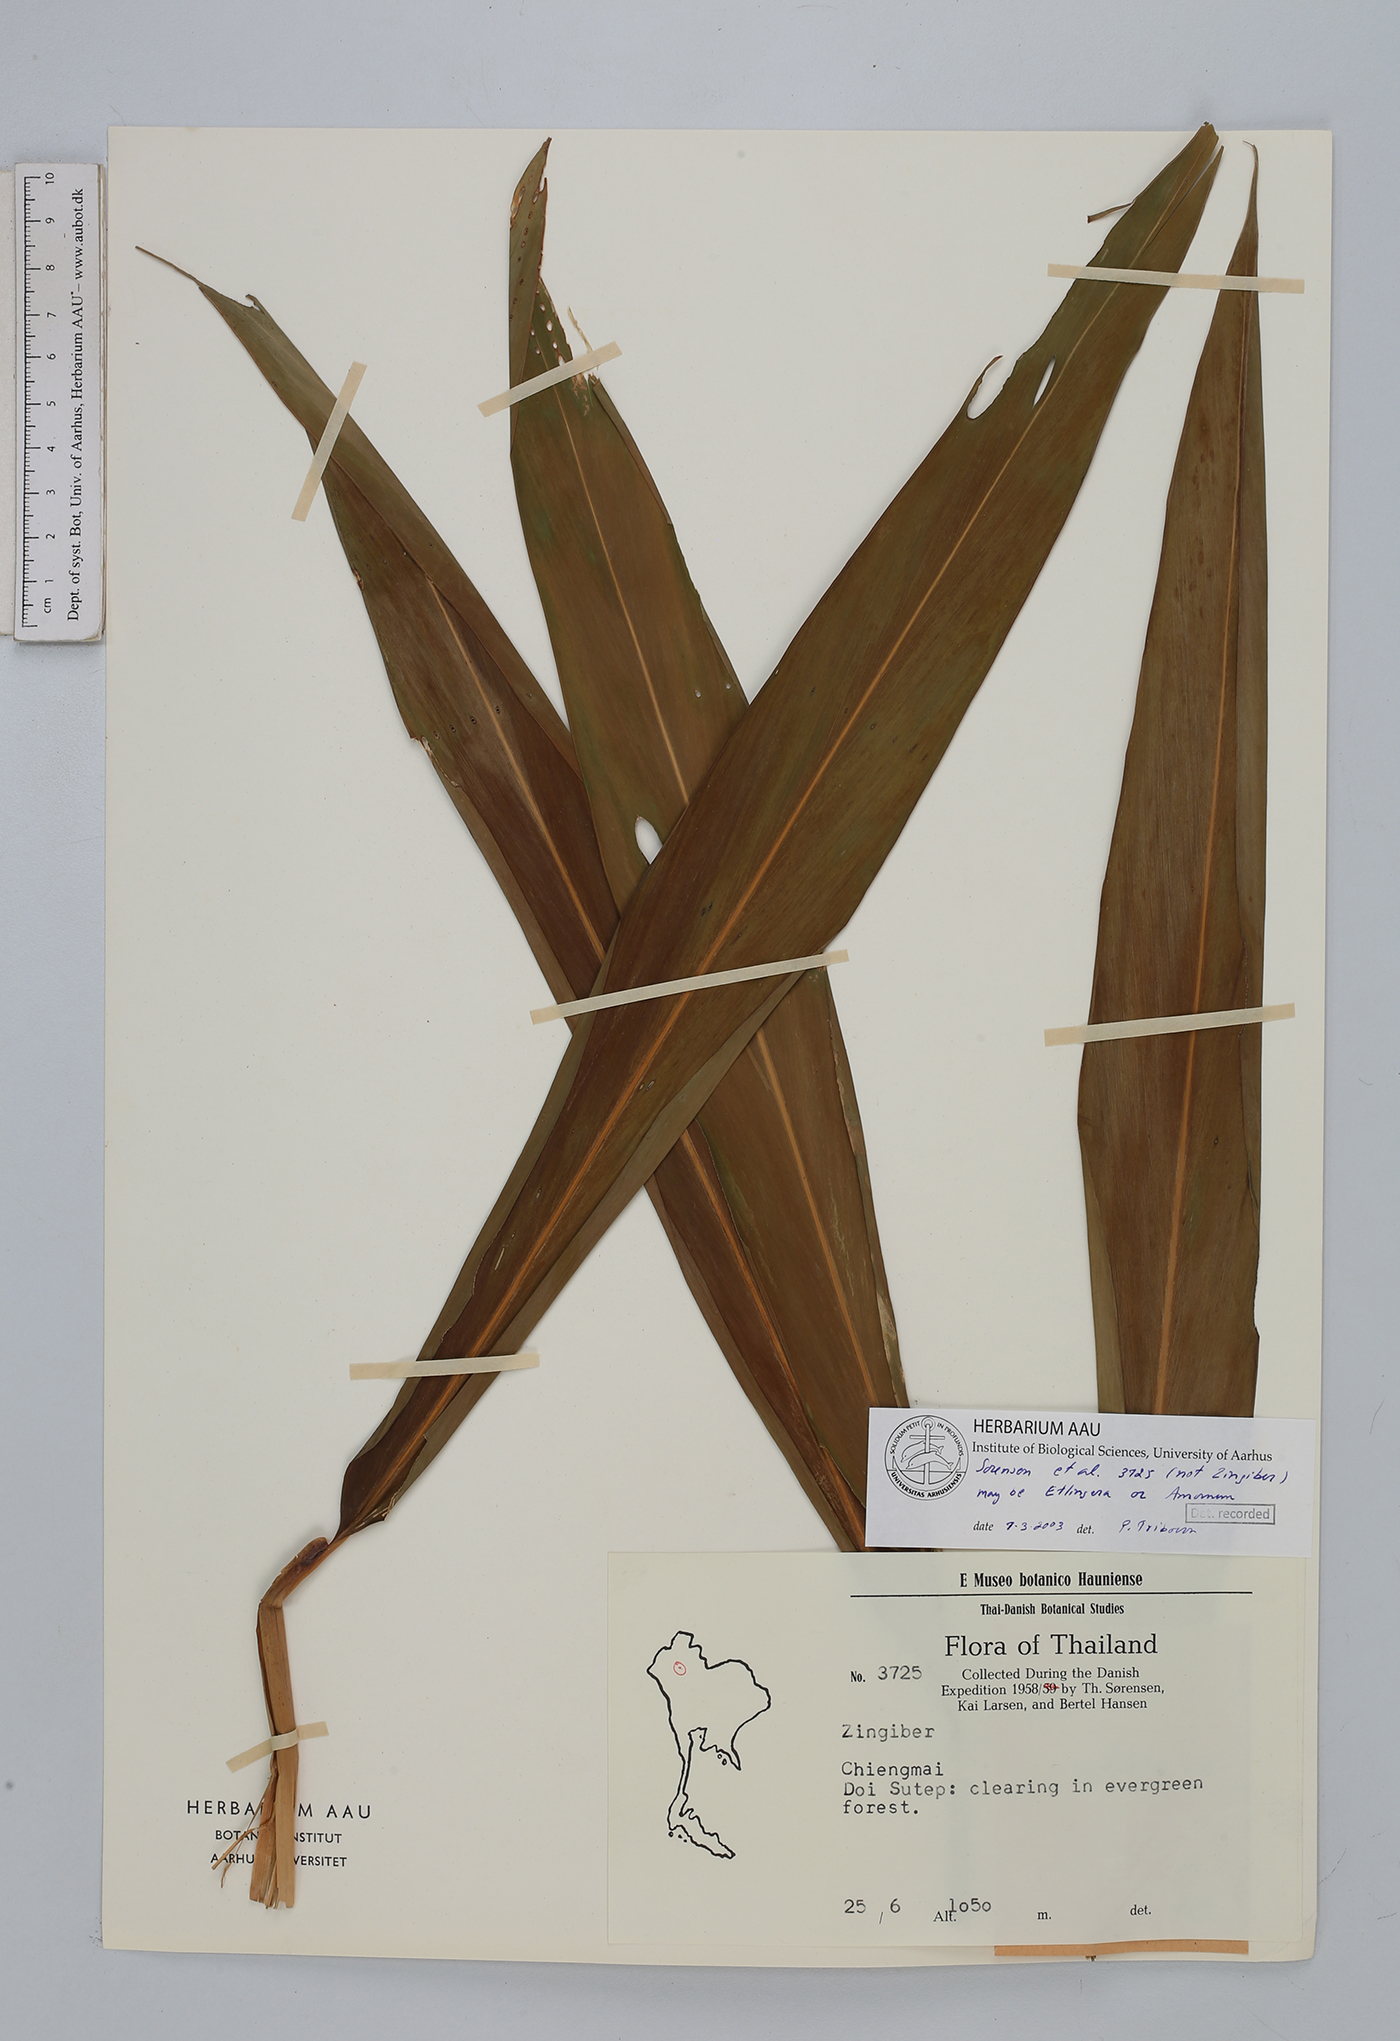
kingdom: Plantae
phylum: Tracheophyta
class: Liliopsida
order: Zingiberales
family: Zingiberaceae
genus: Etlingera
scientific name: Etlingera
